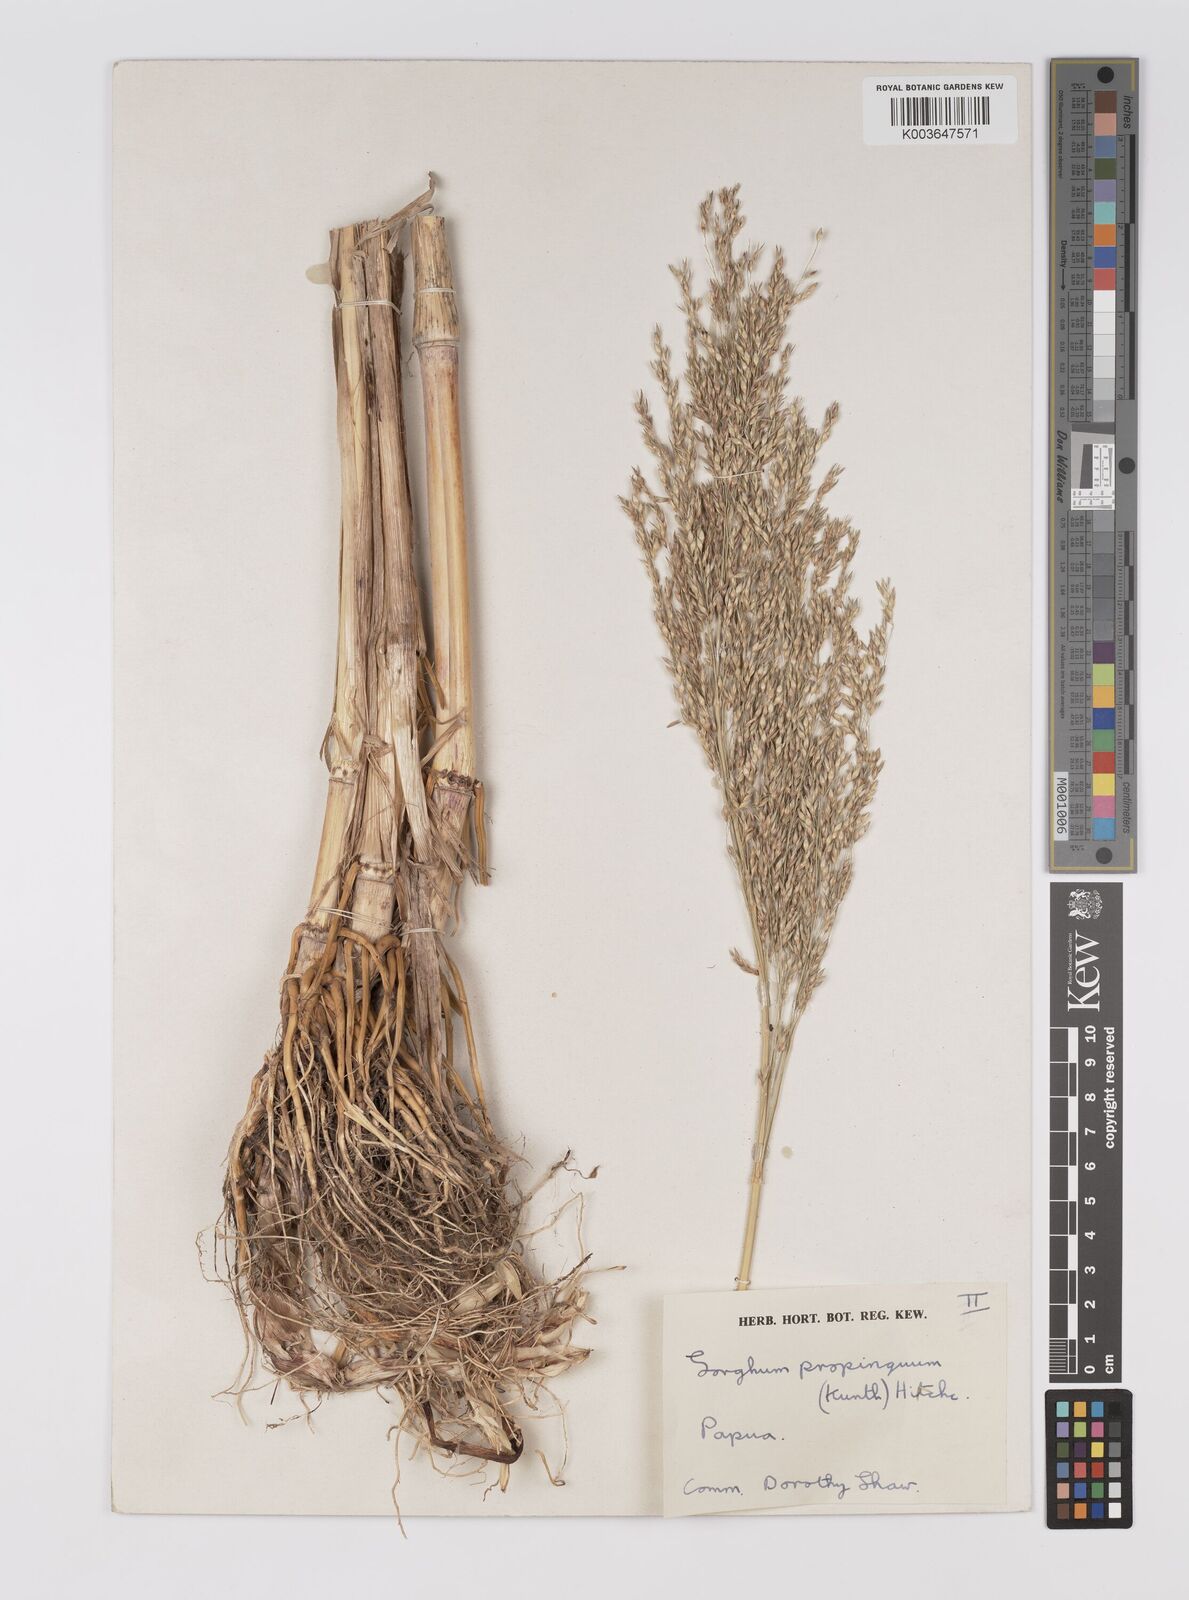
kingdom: Plantae
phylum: Tracheophyta
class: Liliopsida
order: Poales
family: Poaceae
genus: Sorghum
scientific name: Sorghum propinquum
